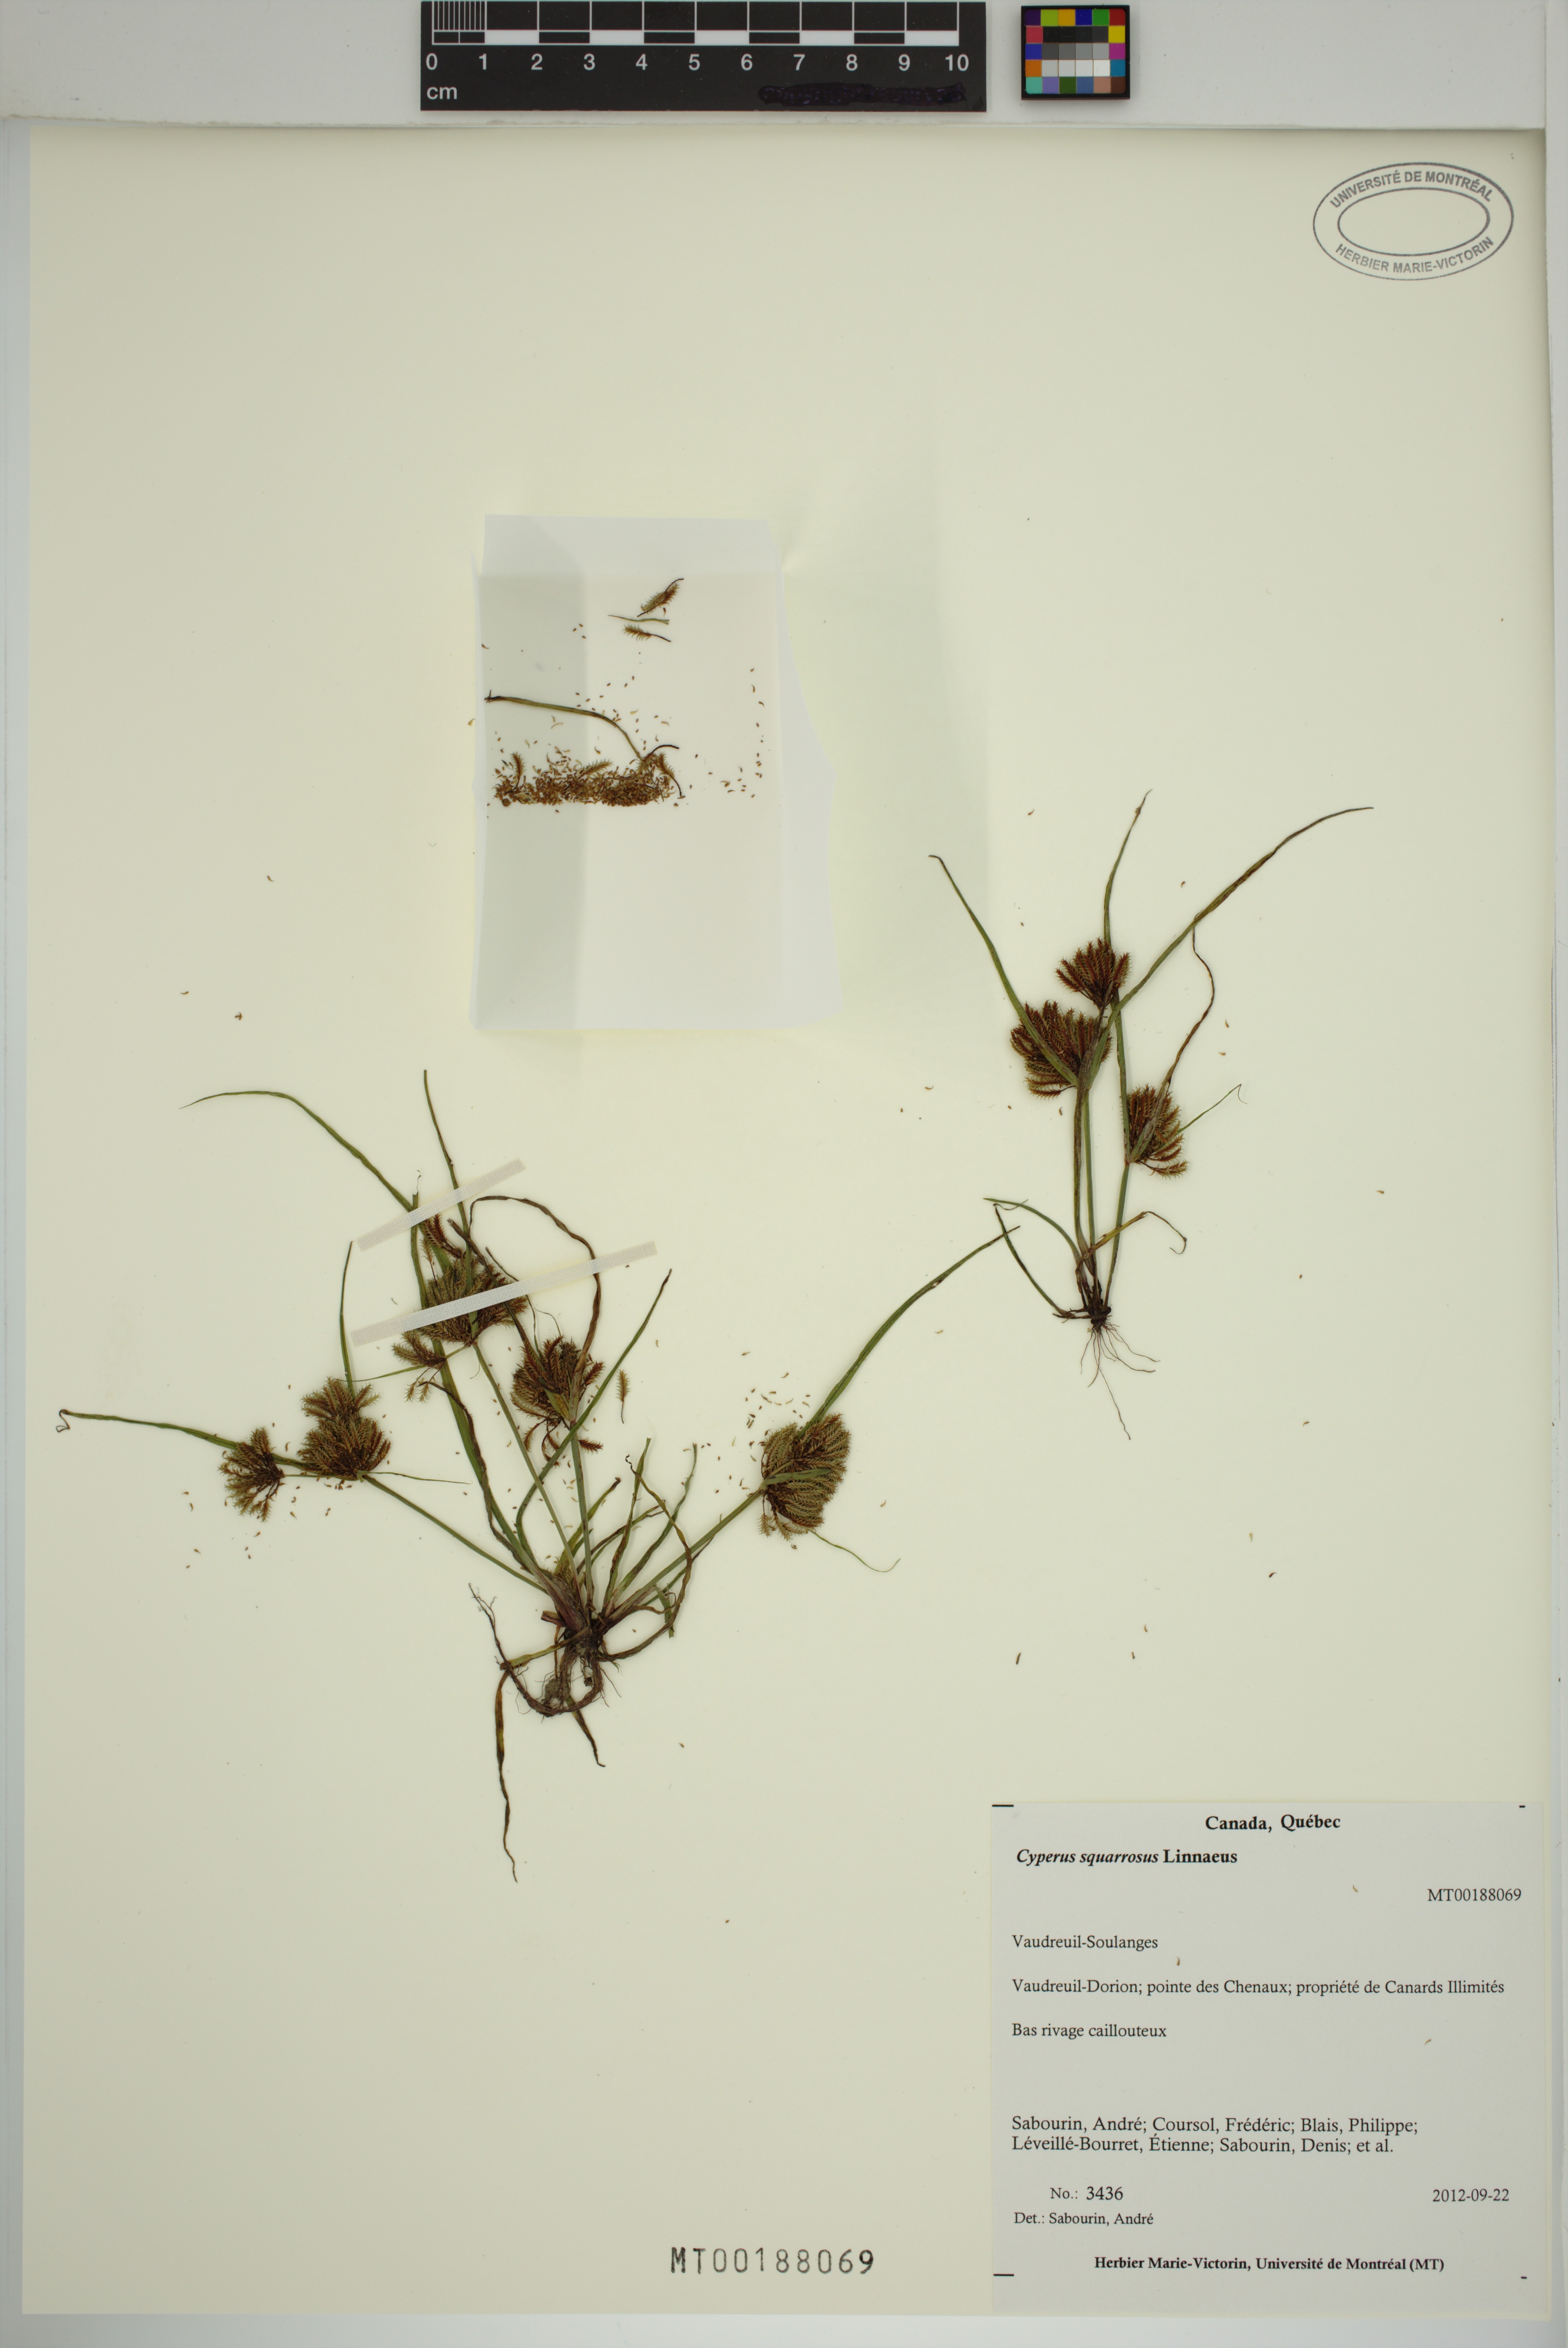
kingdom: Plantae
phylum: Tracheophyta
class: Liliopsida
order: Poales
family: Cyperaceae
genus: Cyperus
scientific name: Cyperus squarrosus
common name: Awned cyperus
